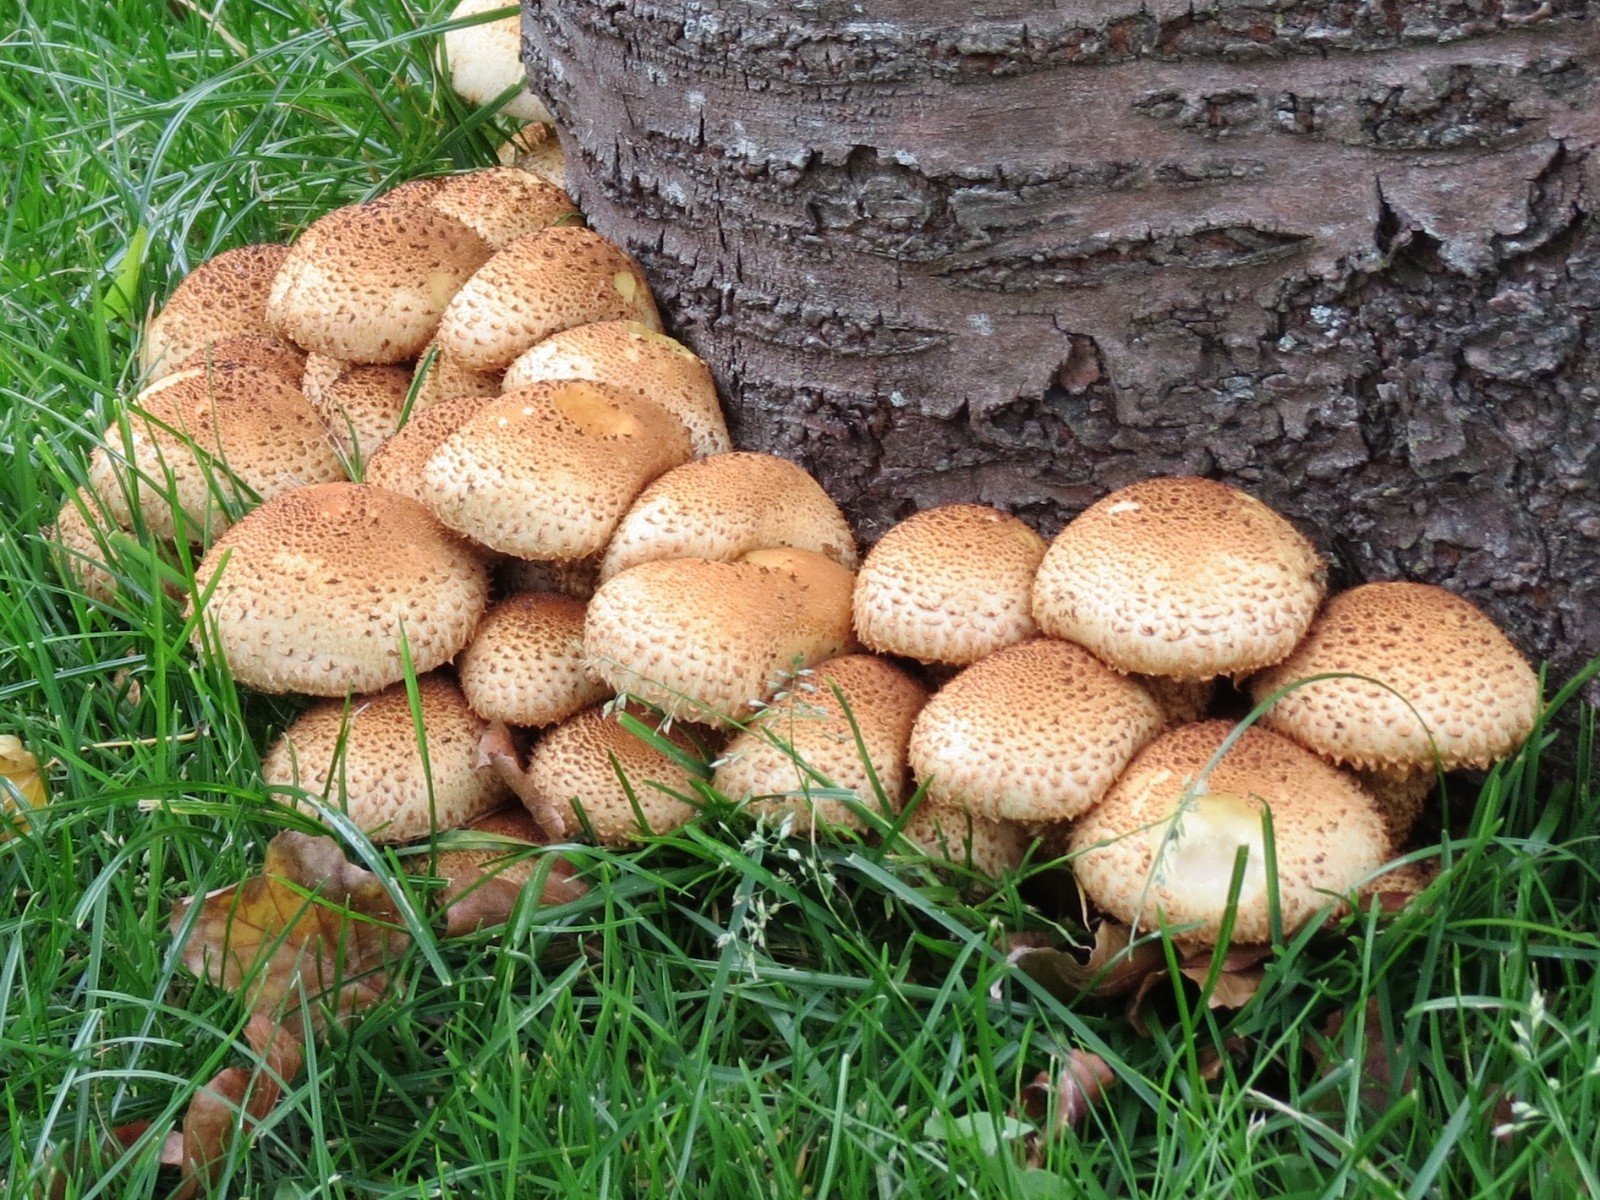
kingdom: Fungi
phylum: Basidiomycota
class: Agaricomycetes
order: Agaricales
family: Strophariaceae
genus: Pholiota
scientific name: Pholiota squarrosa
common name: krumskællet skælhat
